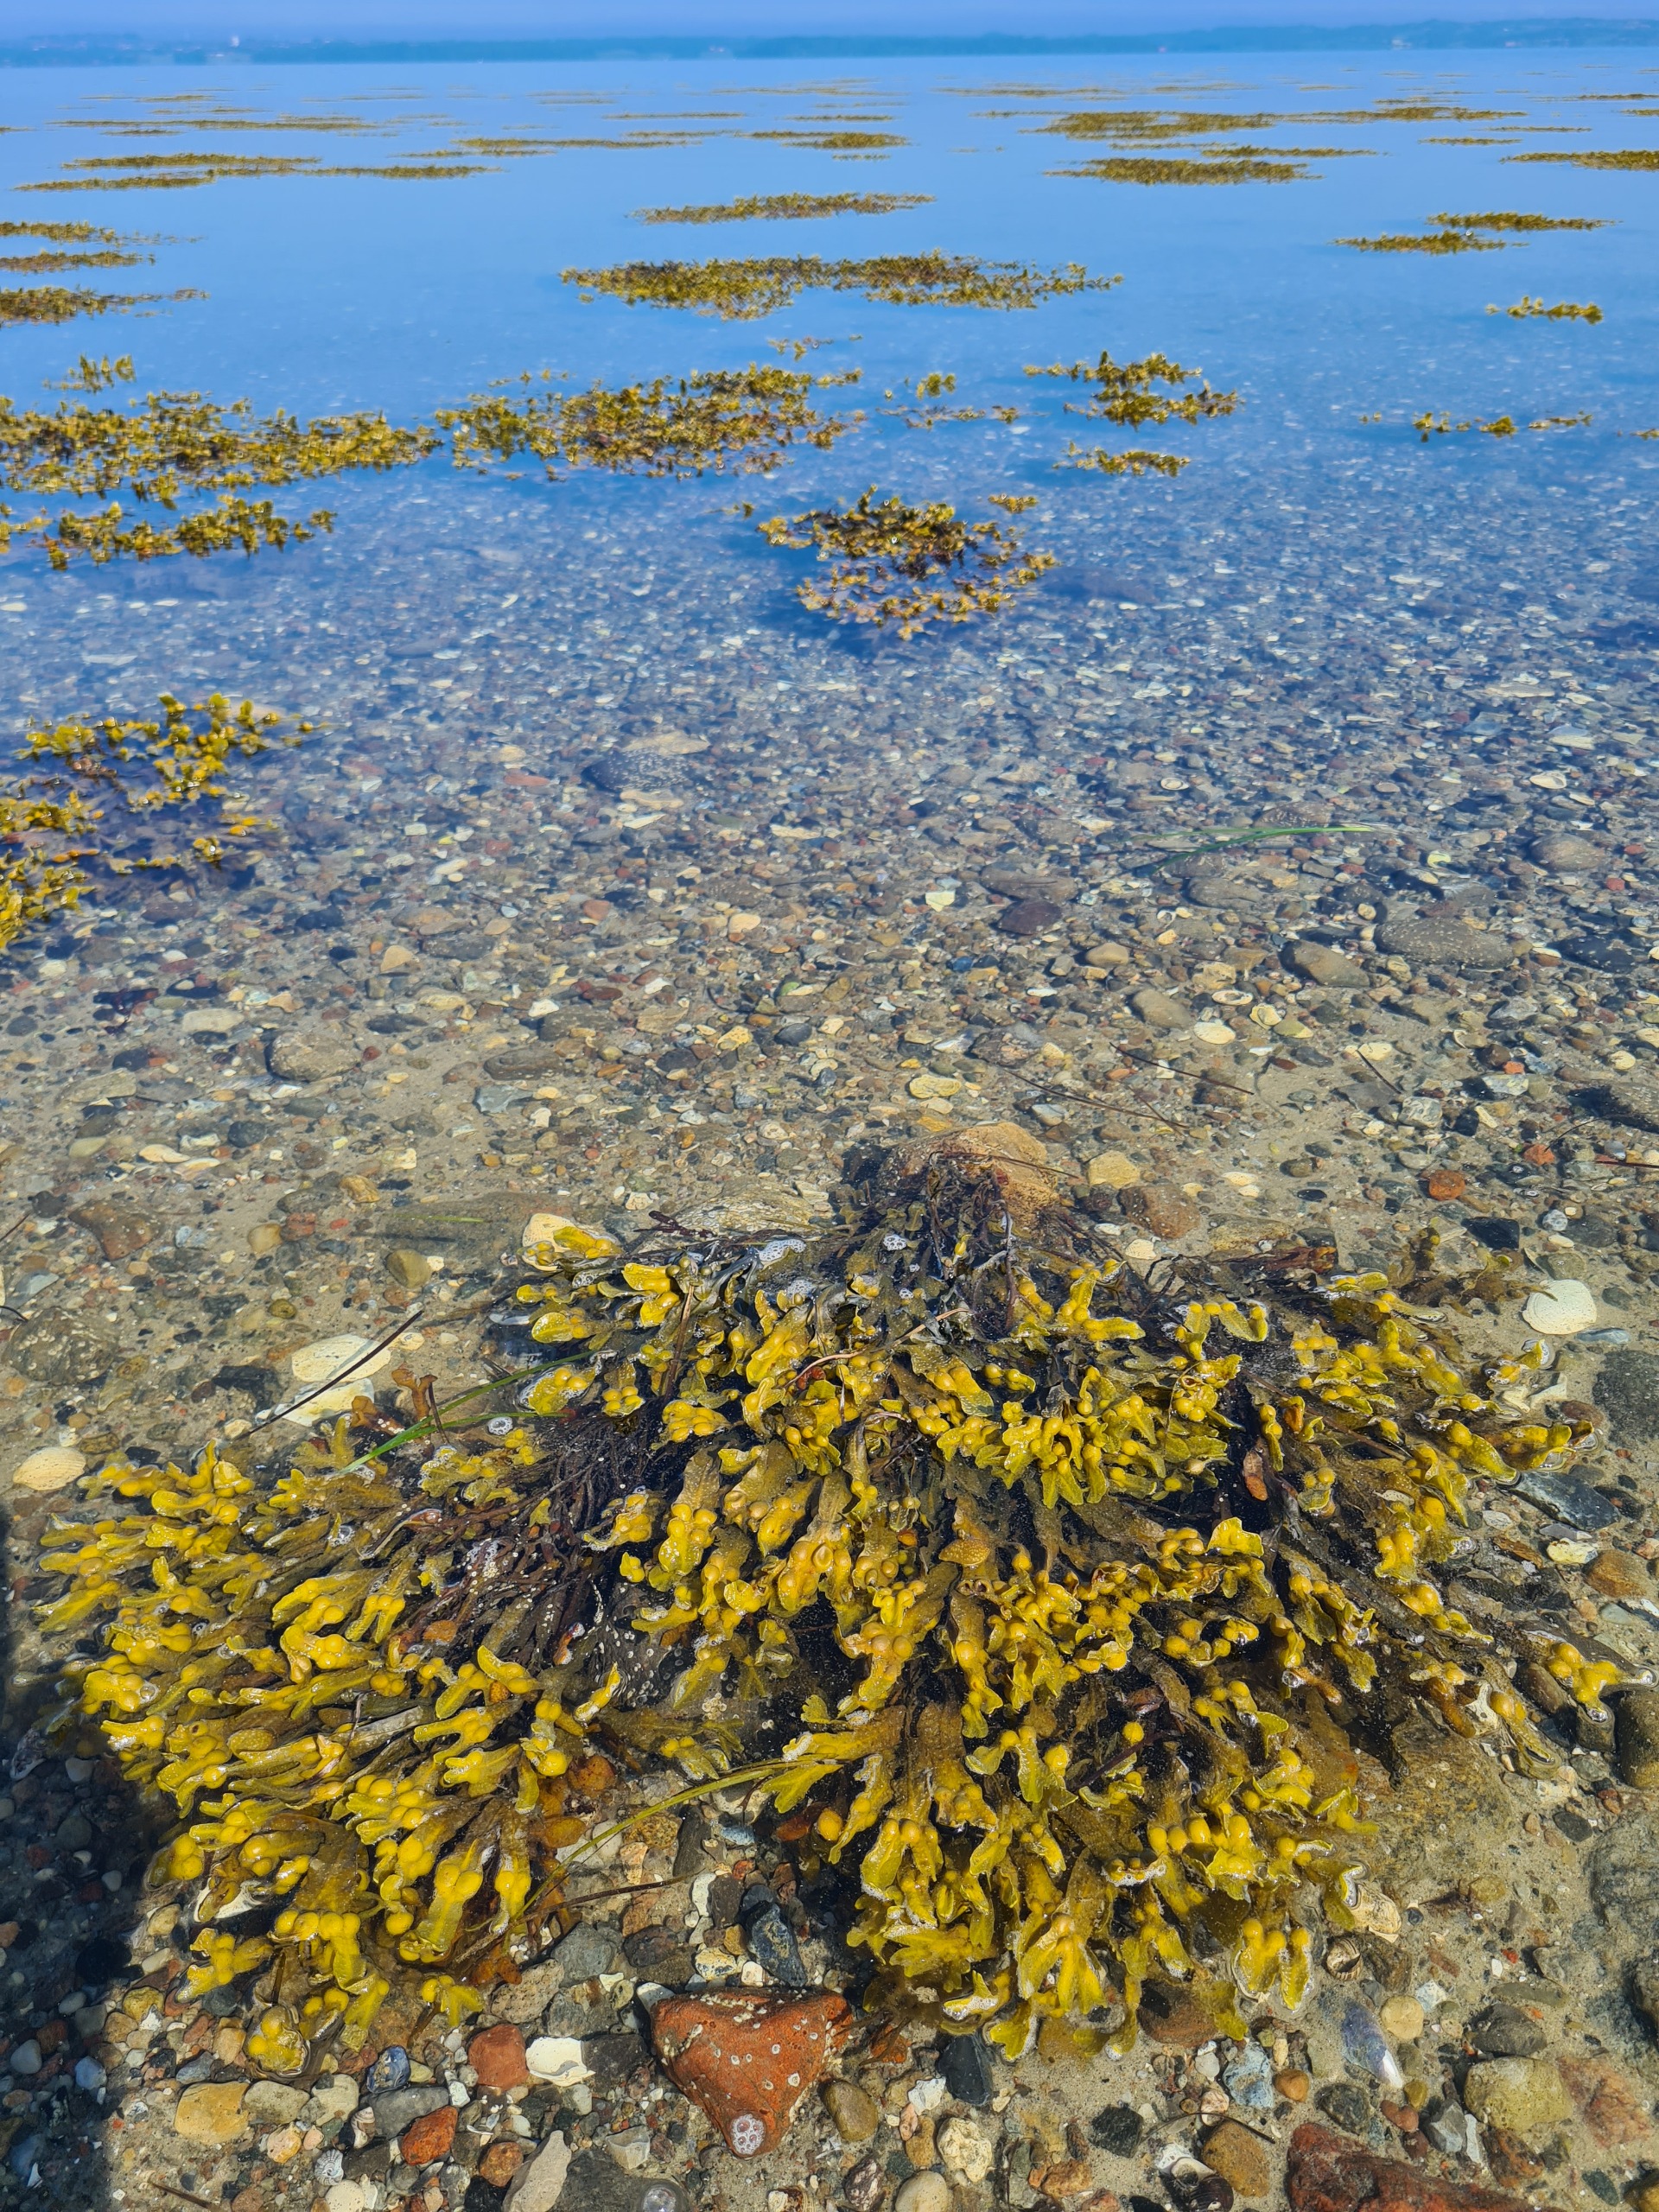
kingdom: Chromista
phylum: Ochrophyta
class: Phaeophyceae
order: Fucales
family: Fucaceae
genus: Fucus
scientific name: Fucus vesiculosus
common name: Blæretang
